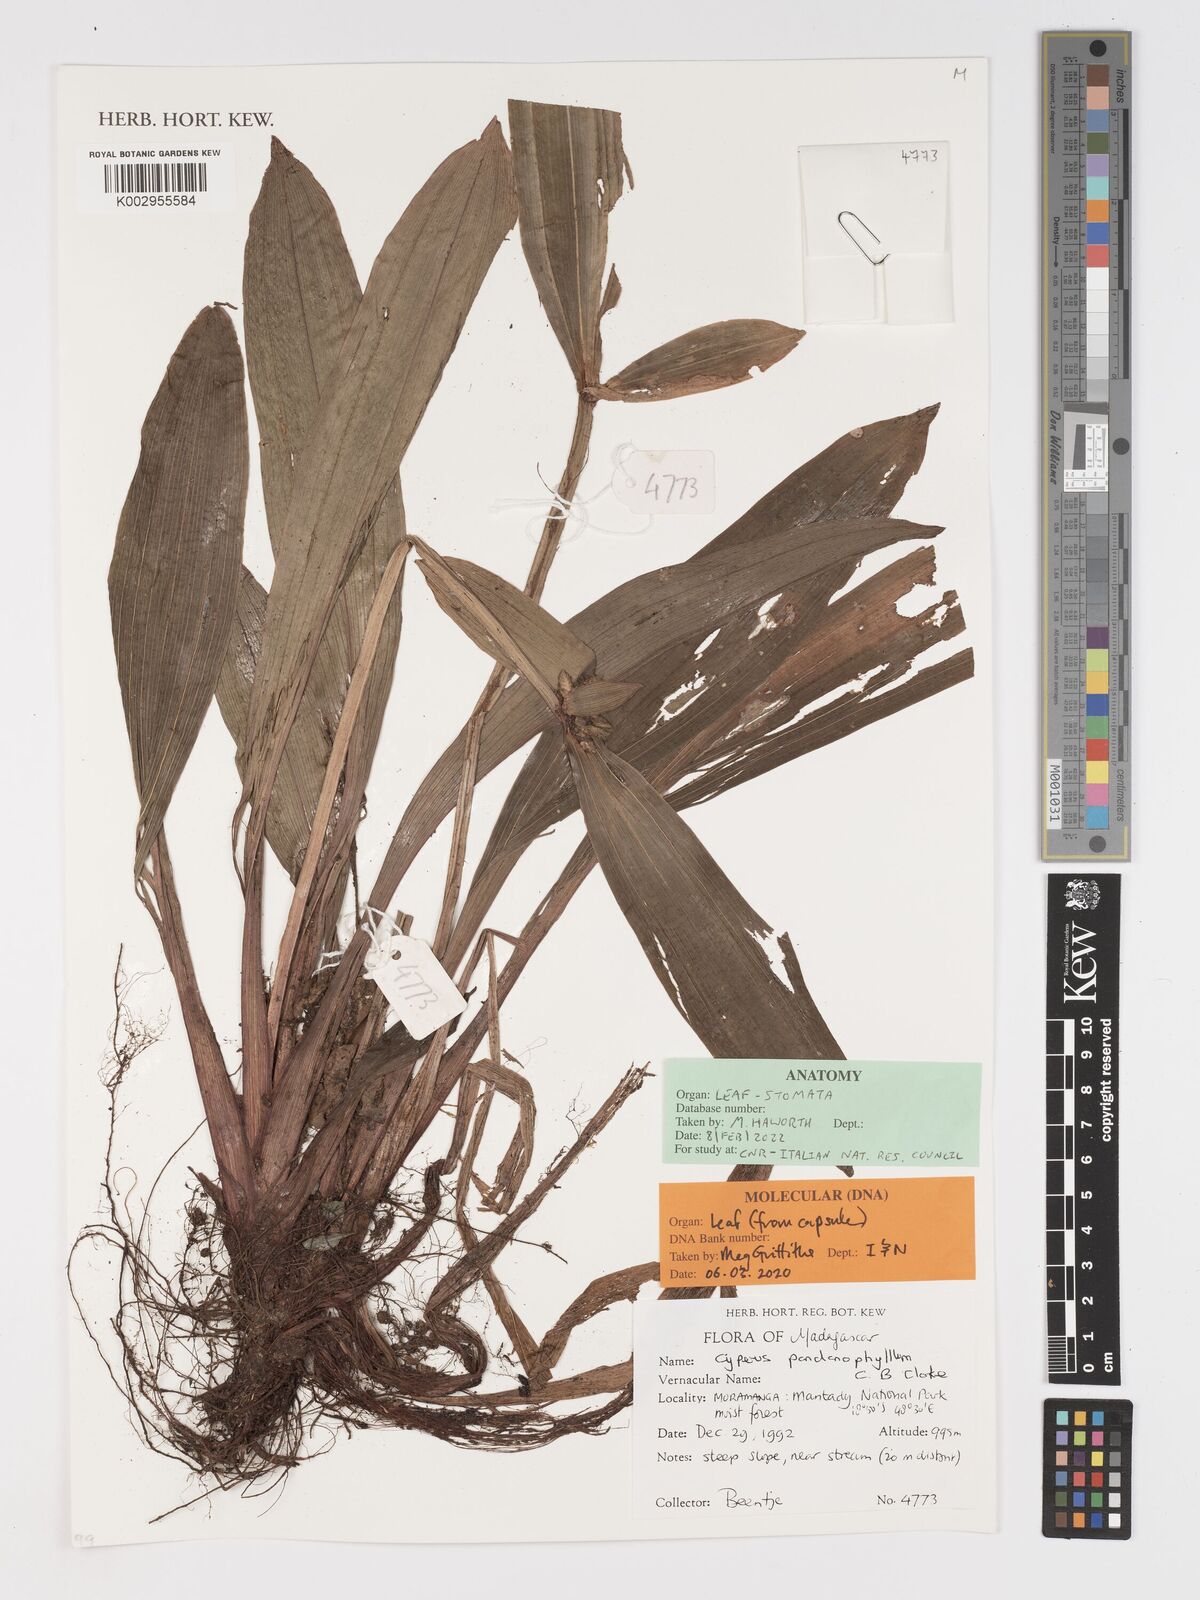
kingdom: Plantae
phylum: Tracheophyta
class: Liliopsida
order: Poales
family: Cyperaceae
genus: Cyperus
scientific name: Cyperus pandanophyllum
